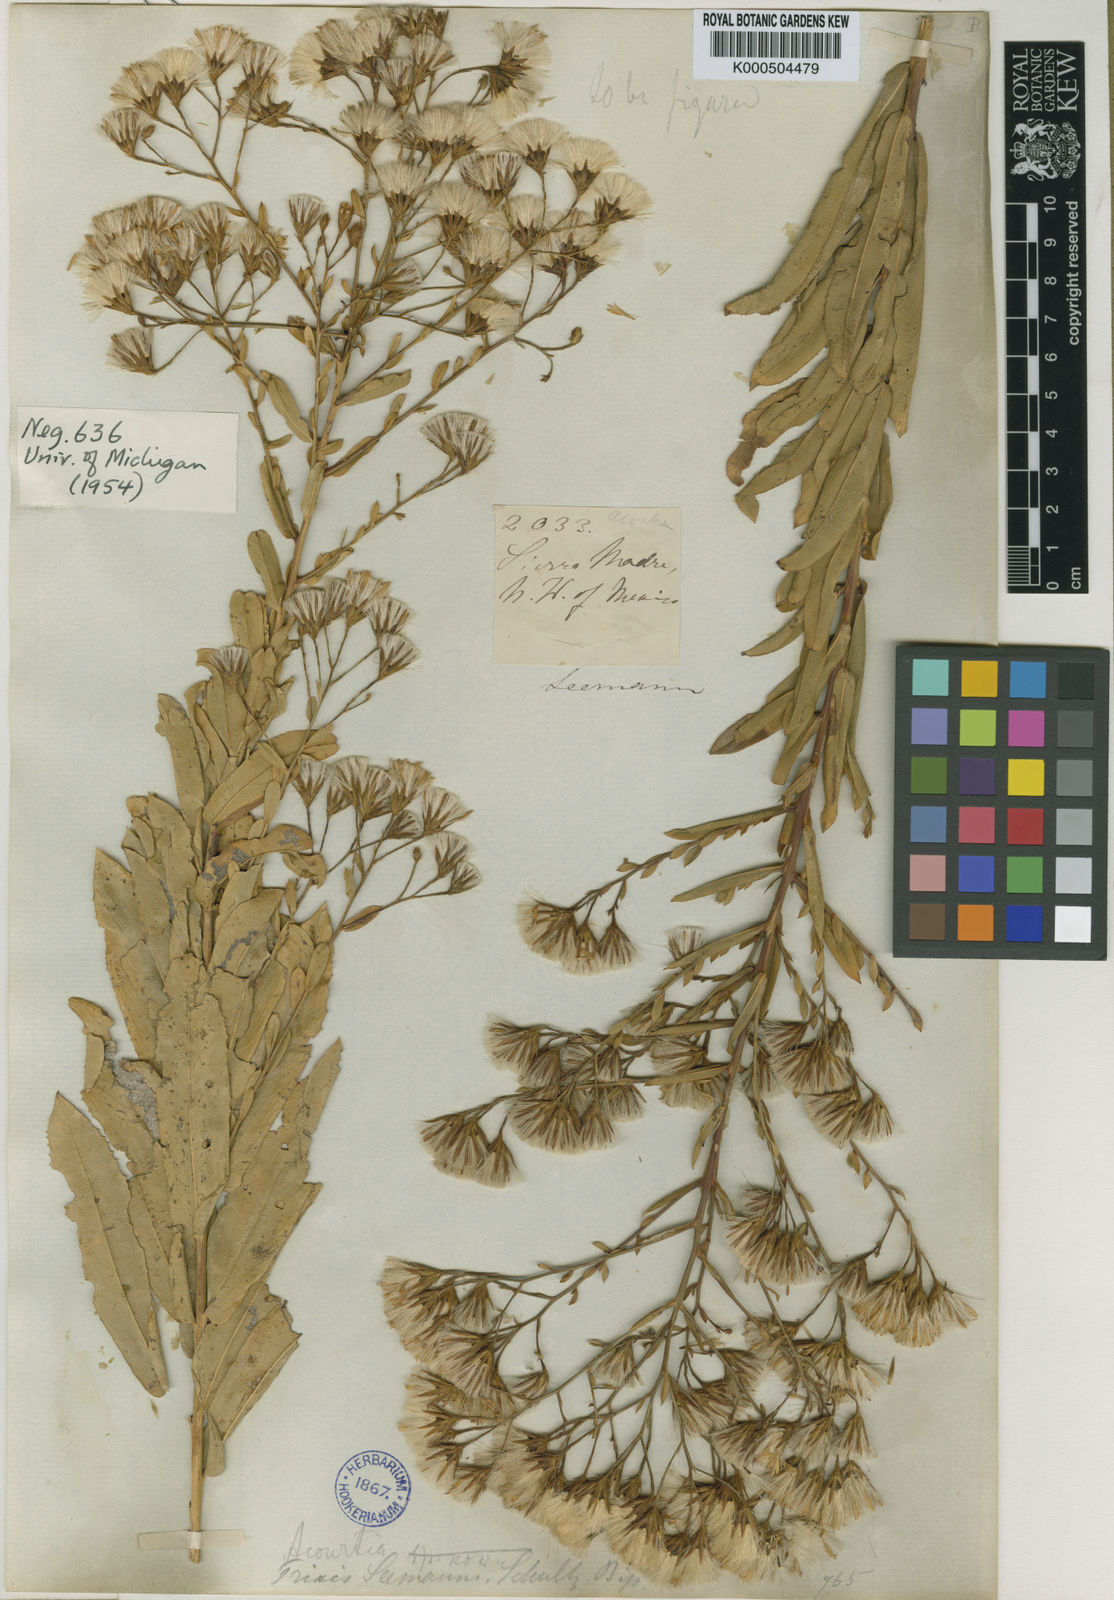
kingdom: Plantae
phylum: Tracheophyta
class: Magnoliopsida
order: Asterales
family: Asteraceae
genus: Acourtia
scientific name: Acourtia fruticosa
